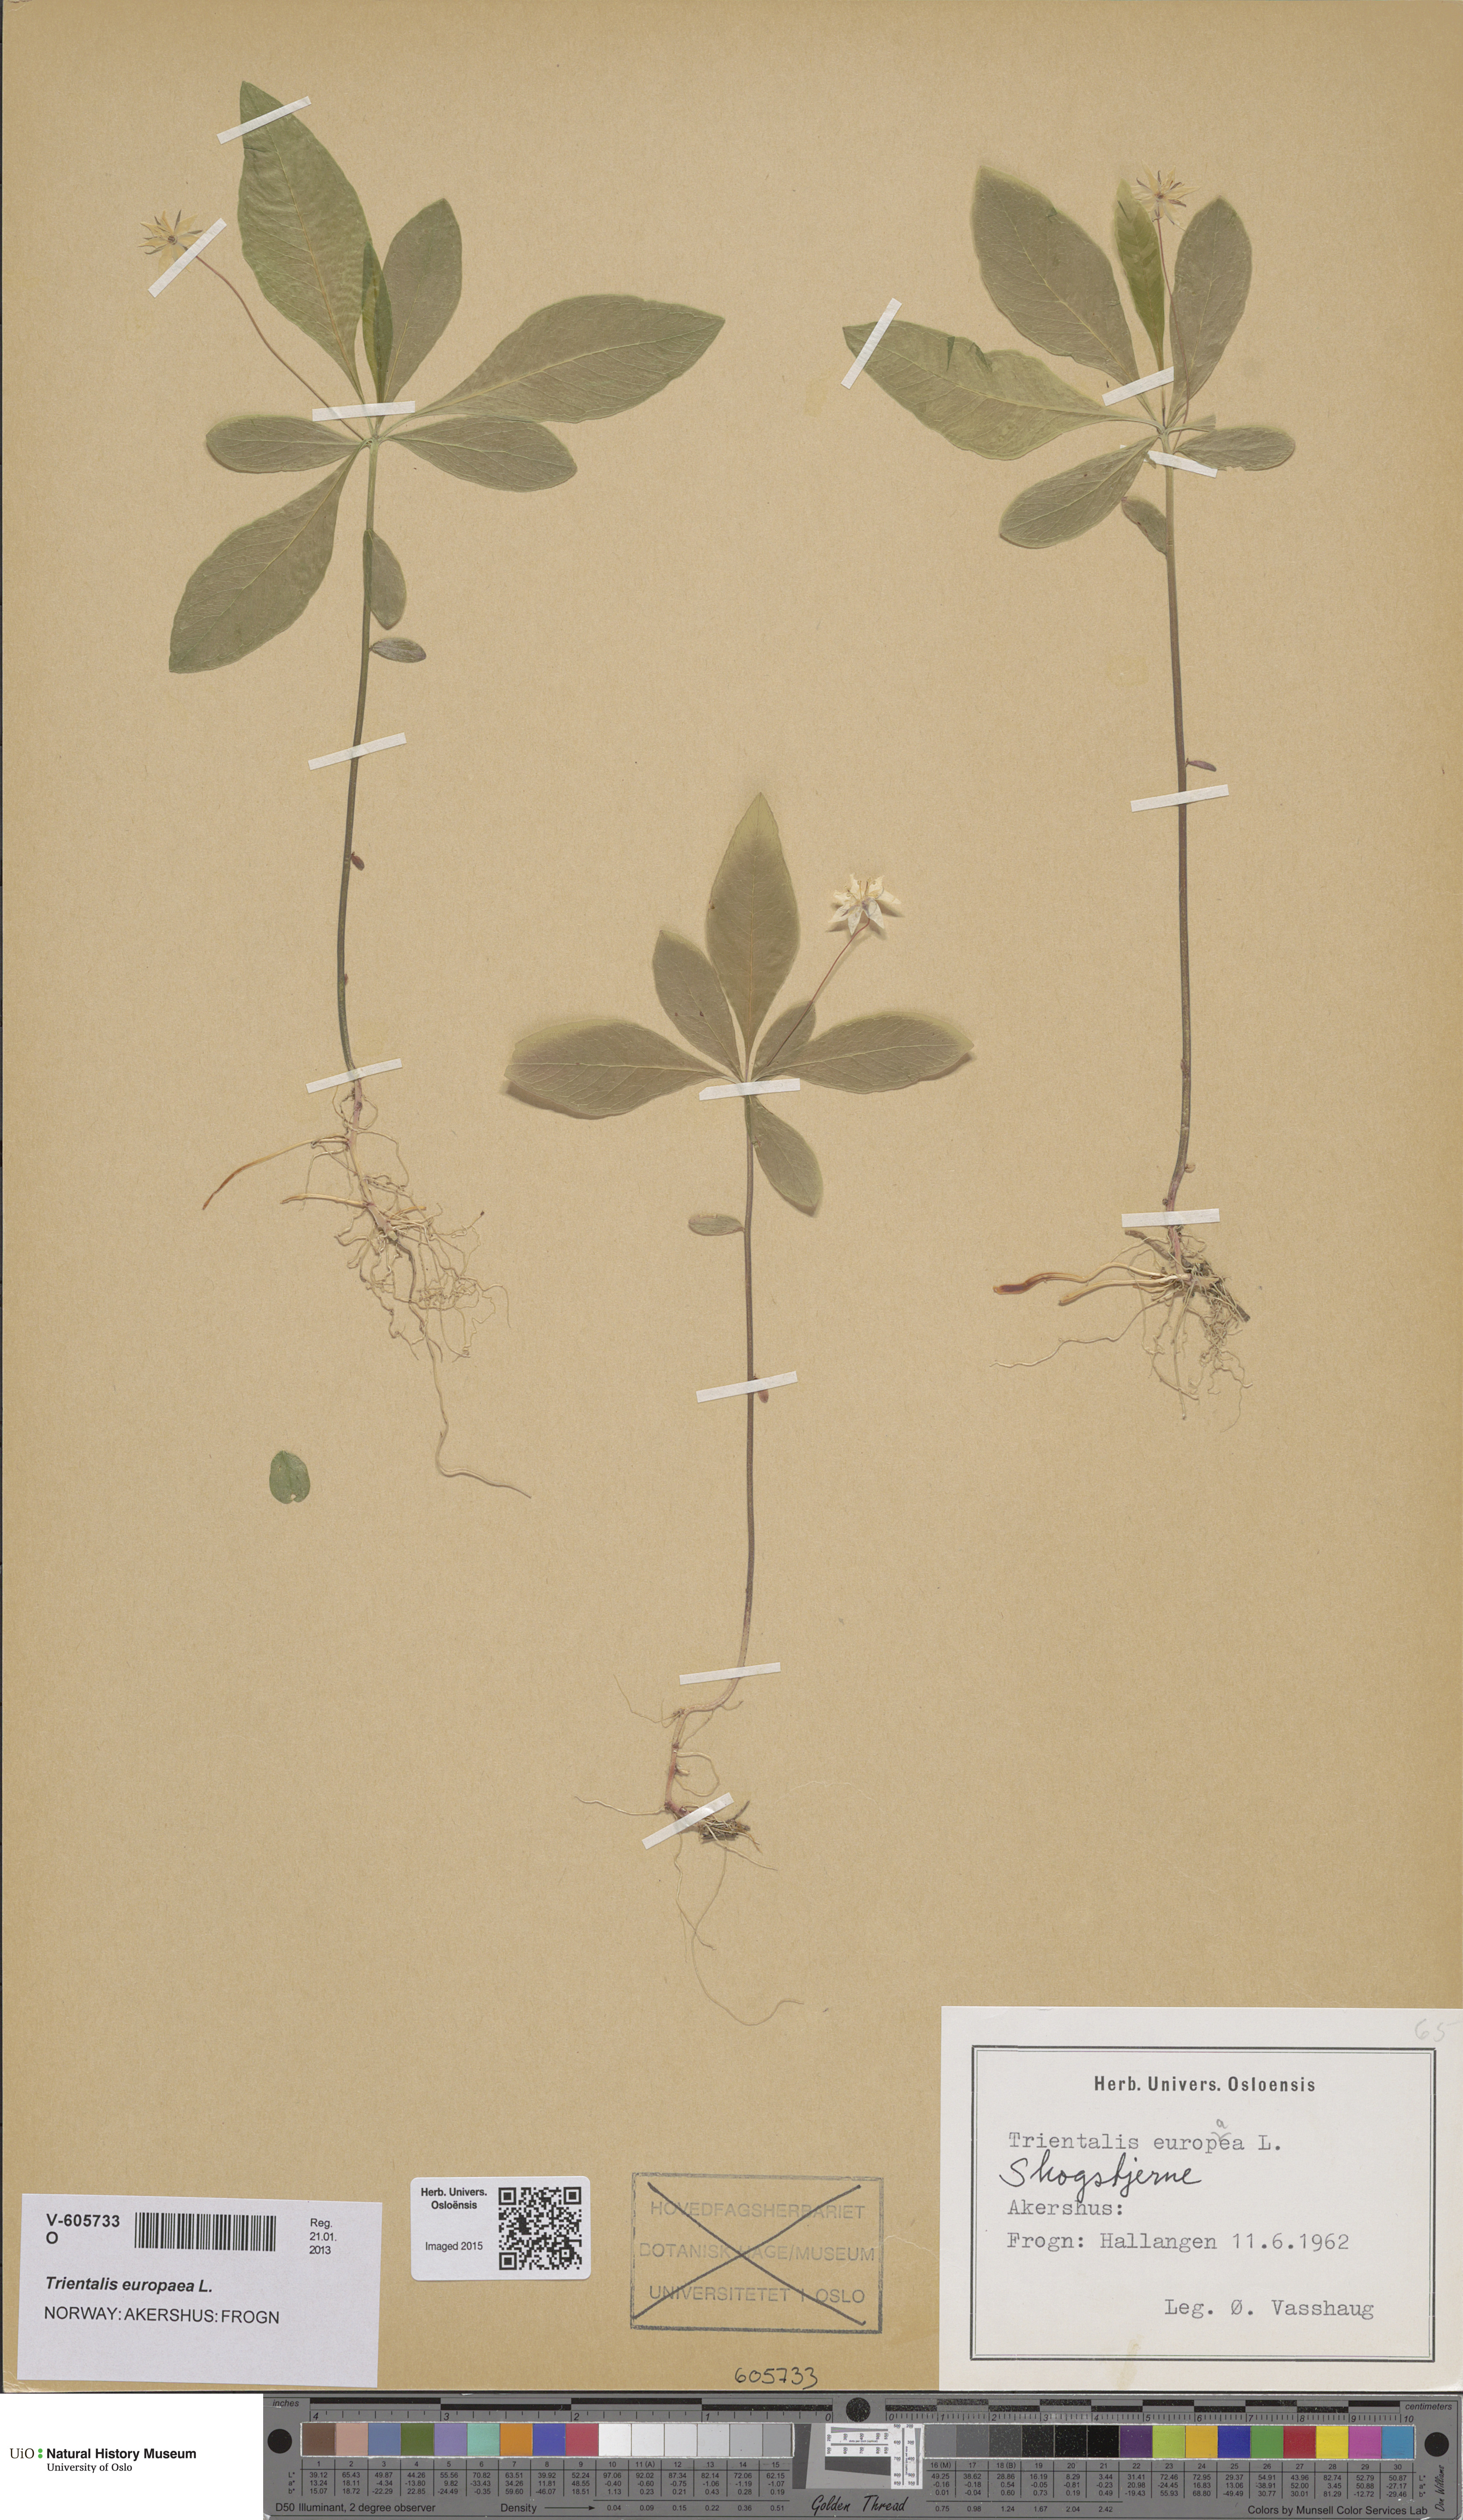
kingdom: Plantae
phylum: Tracheophyta
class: Magnoliopsida
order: Ericales
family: Primulaceae
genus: Lysimachia
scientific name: Lysimachia europaea
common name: Arctic starflower
